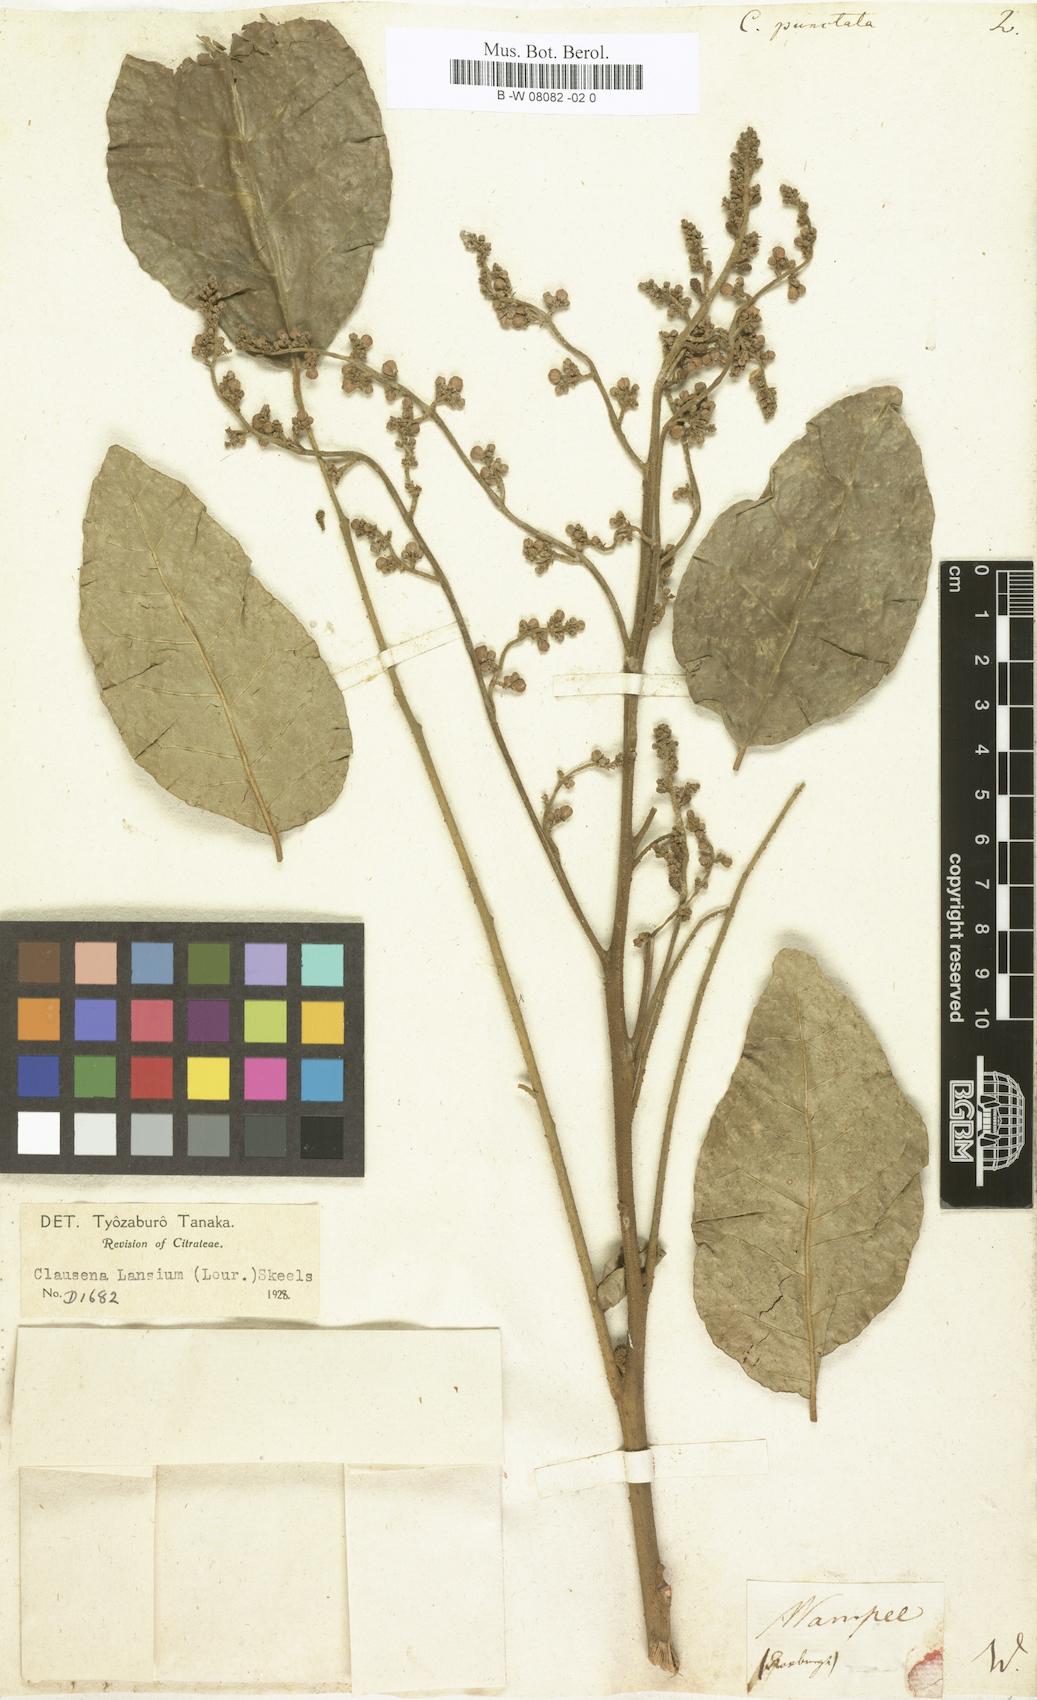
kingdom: Plantae
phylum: Tracheophyta
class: Magnoliopsida
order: Sapindales
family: Rutaceae
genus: Clausena
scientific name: Clausena lansium
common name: Wampi
